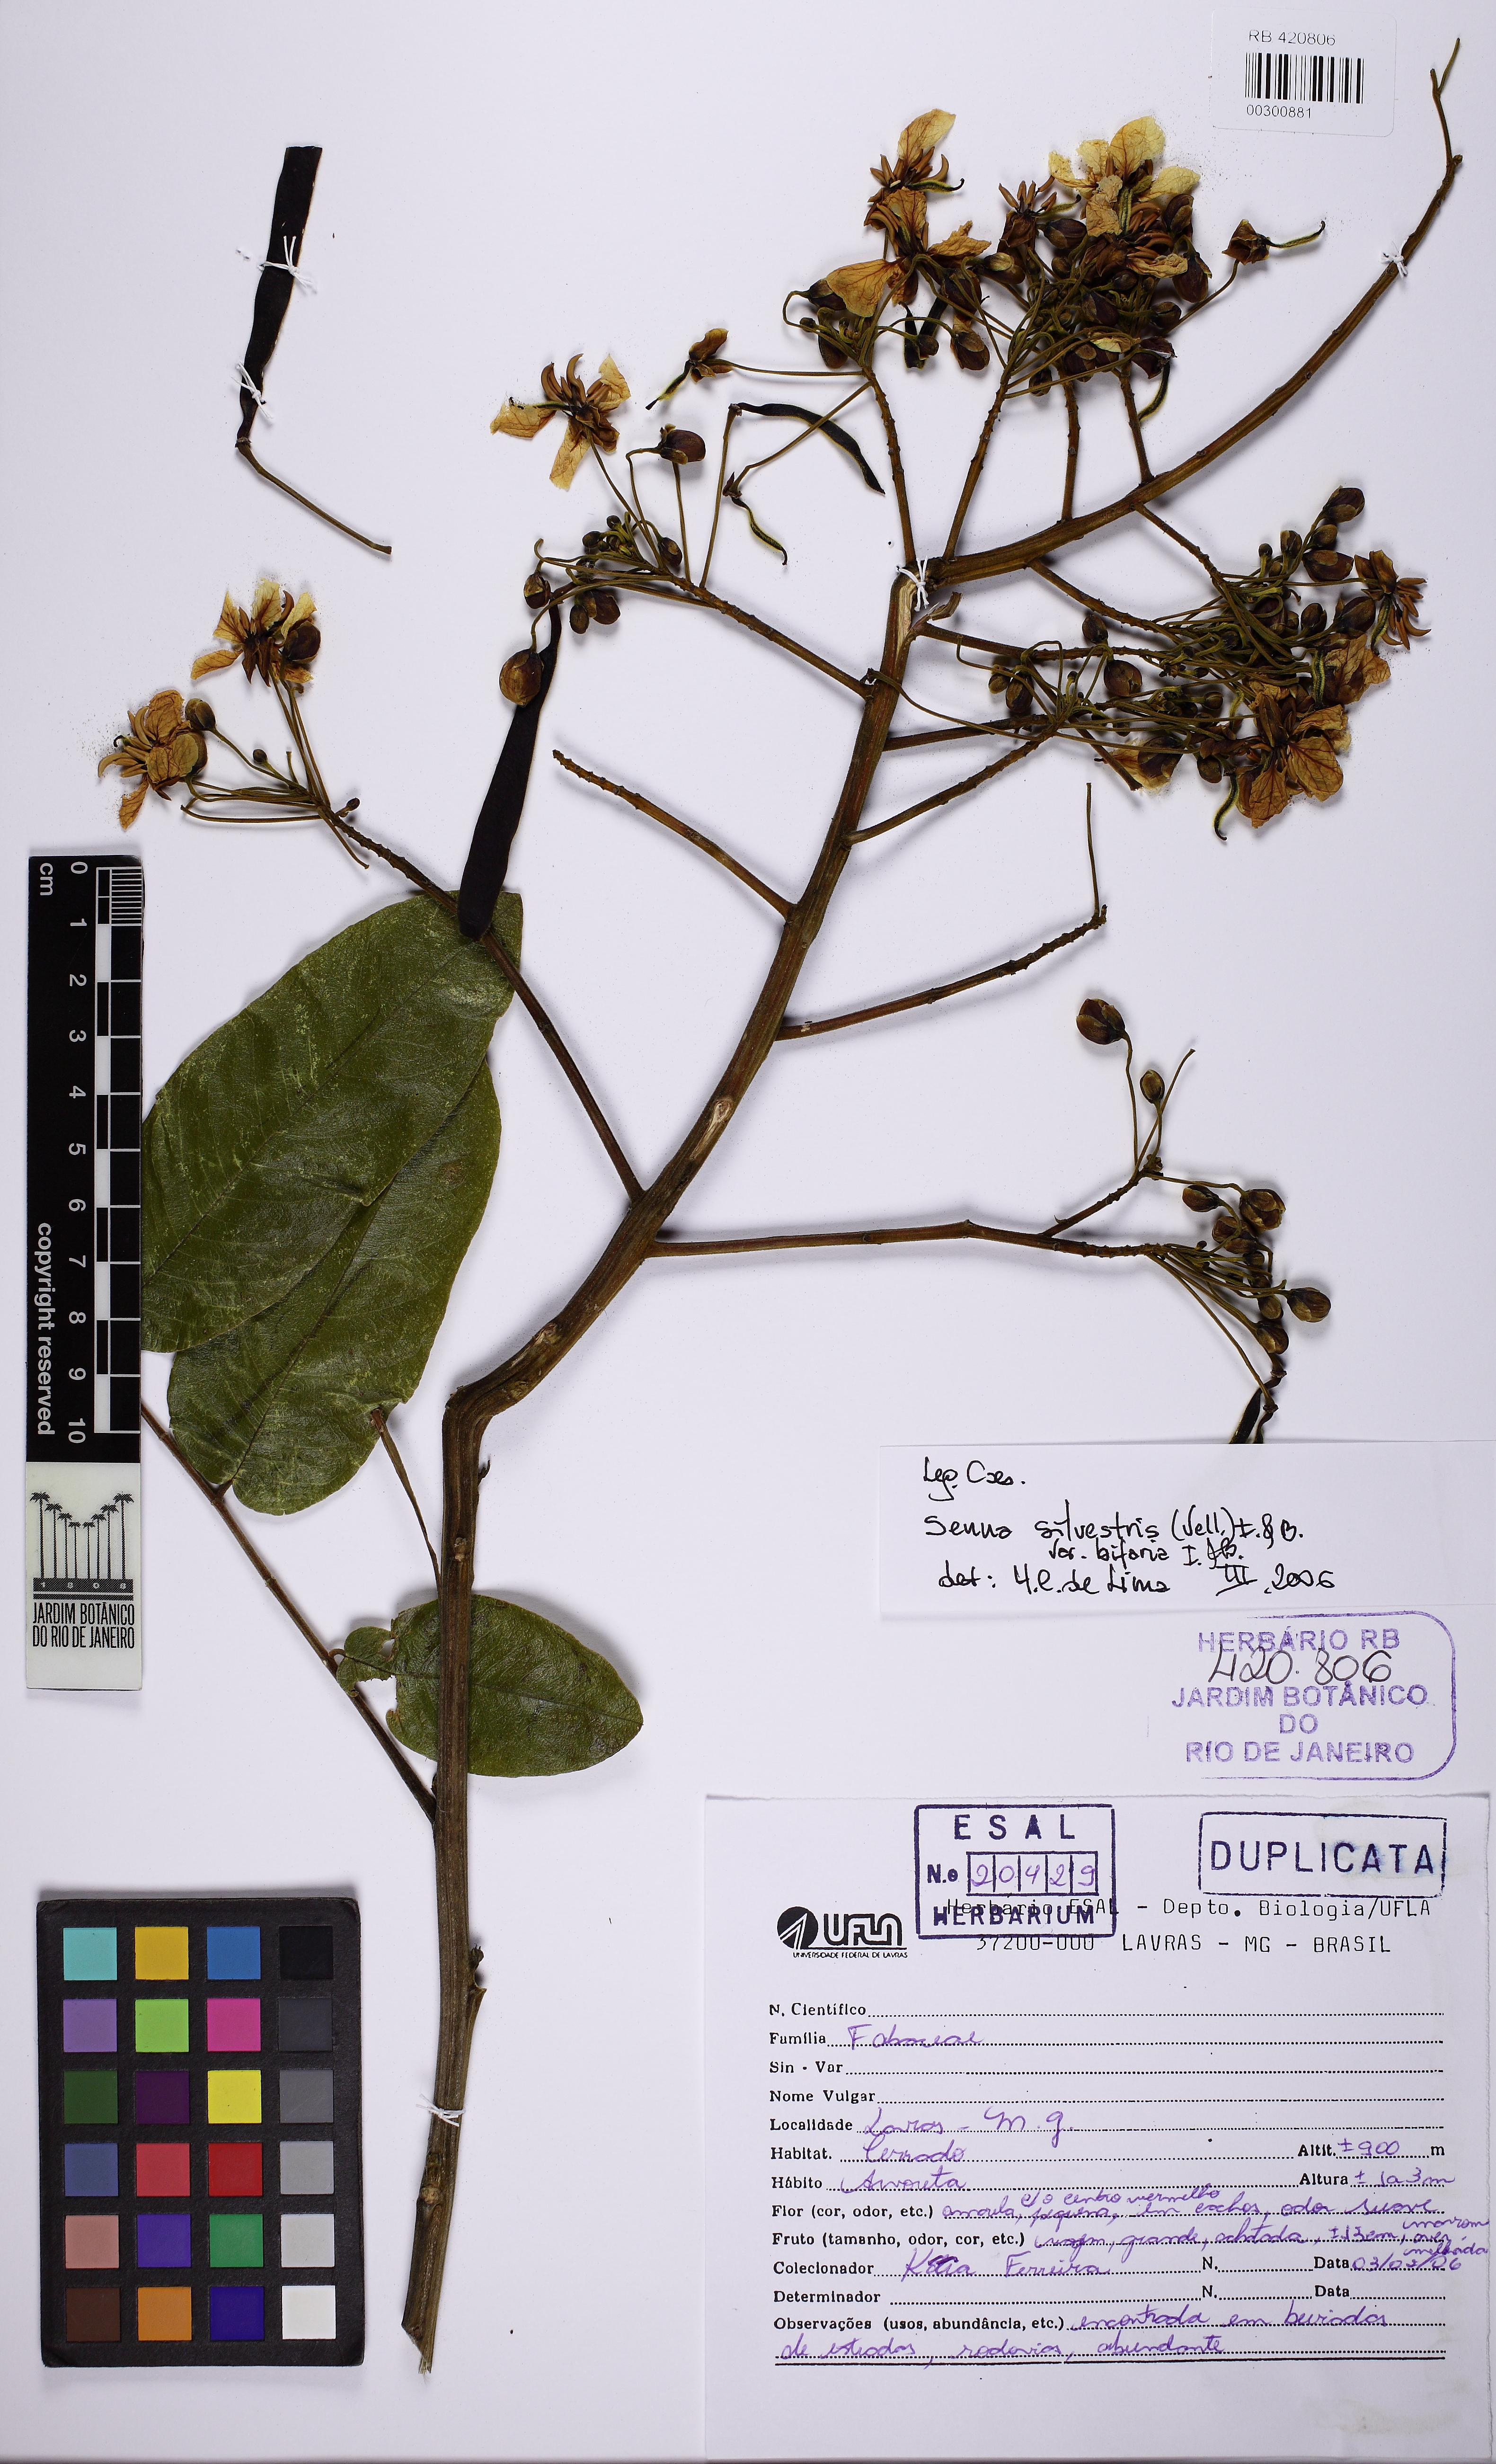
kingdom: Plantae
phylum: Tracheophyta
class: Magnoliopsida
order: Fabales
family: Fabaceae
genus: Senna
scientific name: Senna silvestris
